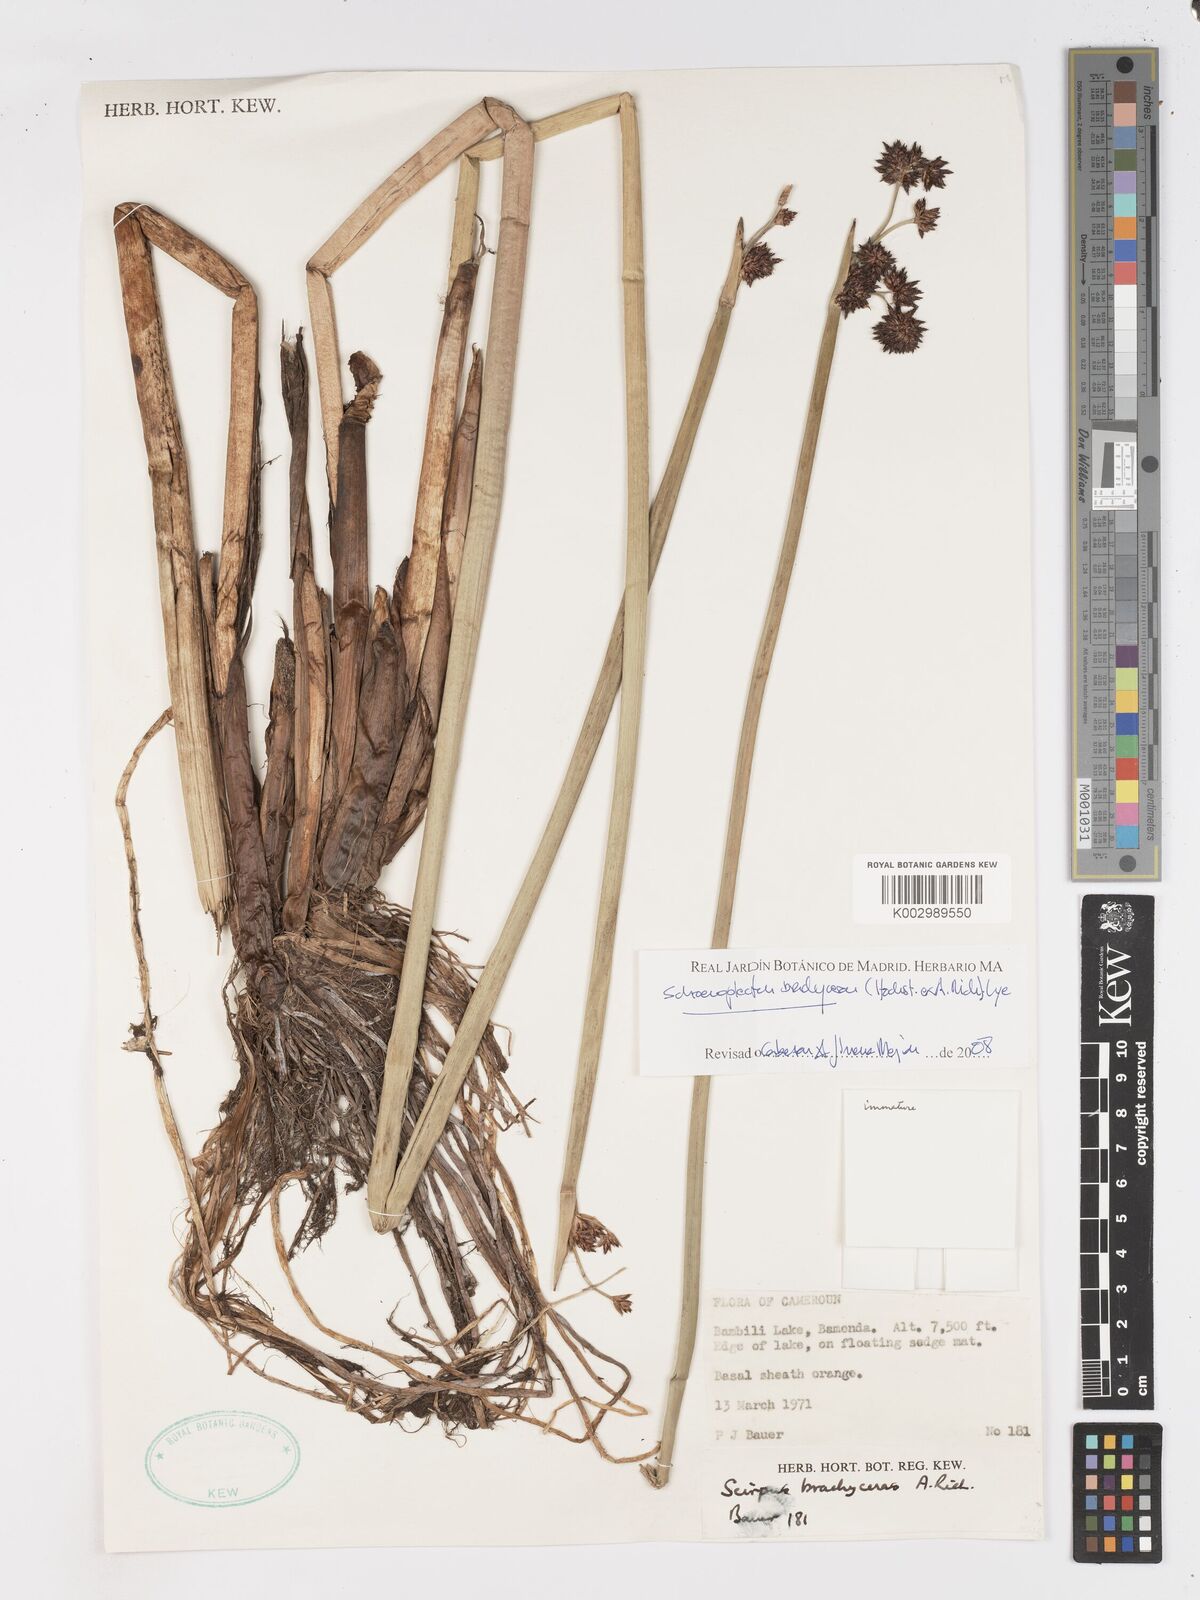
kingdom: Plantae
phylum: Tracheophyta
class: Liliopsida
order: Poales
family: Cyperaceae
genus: Schoenoplectiella
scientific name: Schoenoplectiella corymbosa
